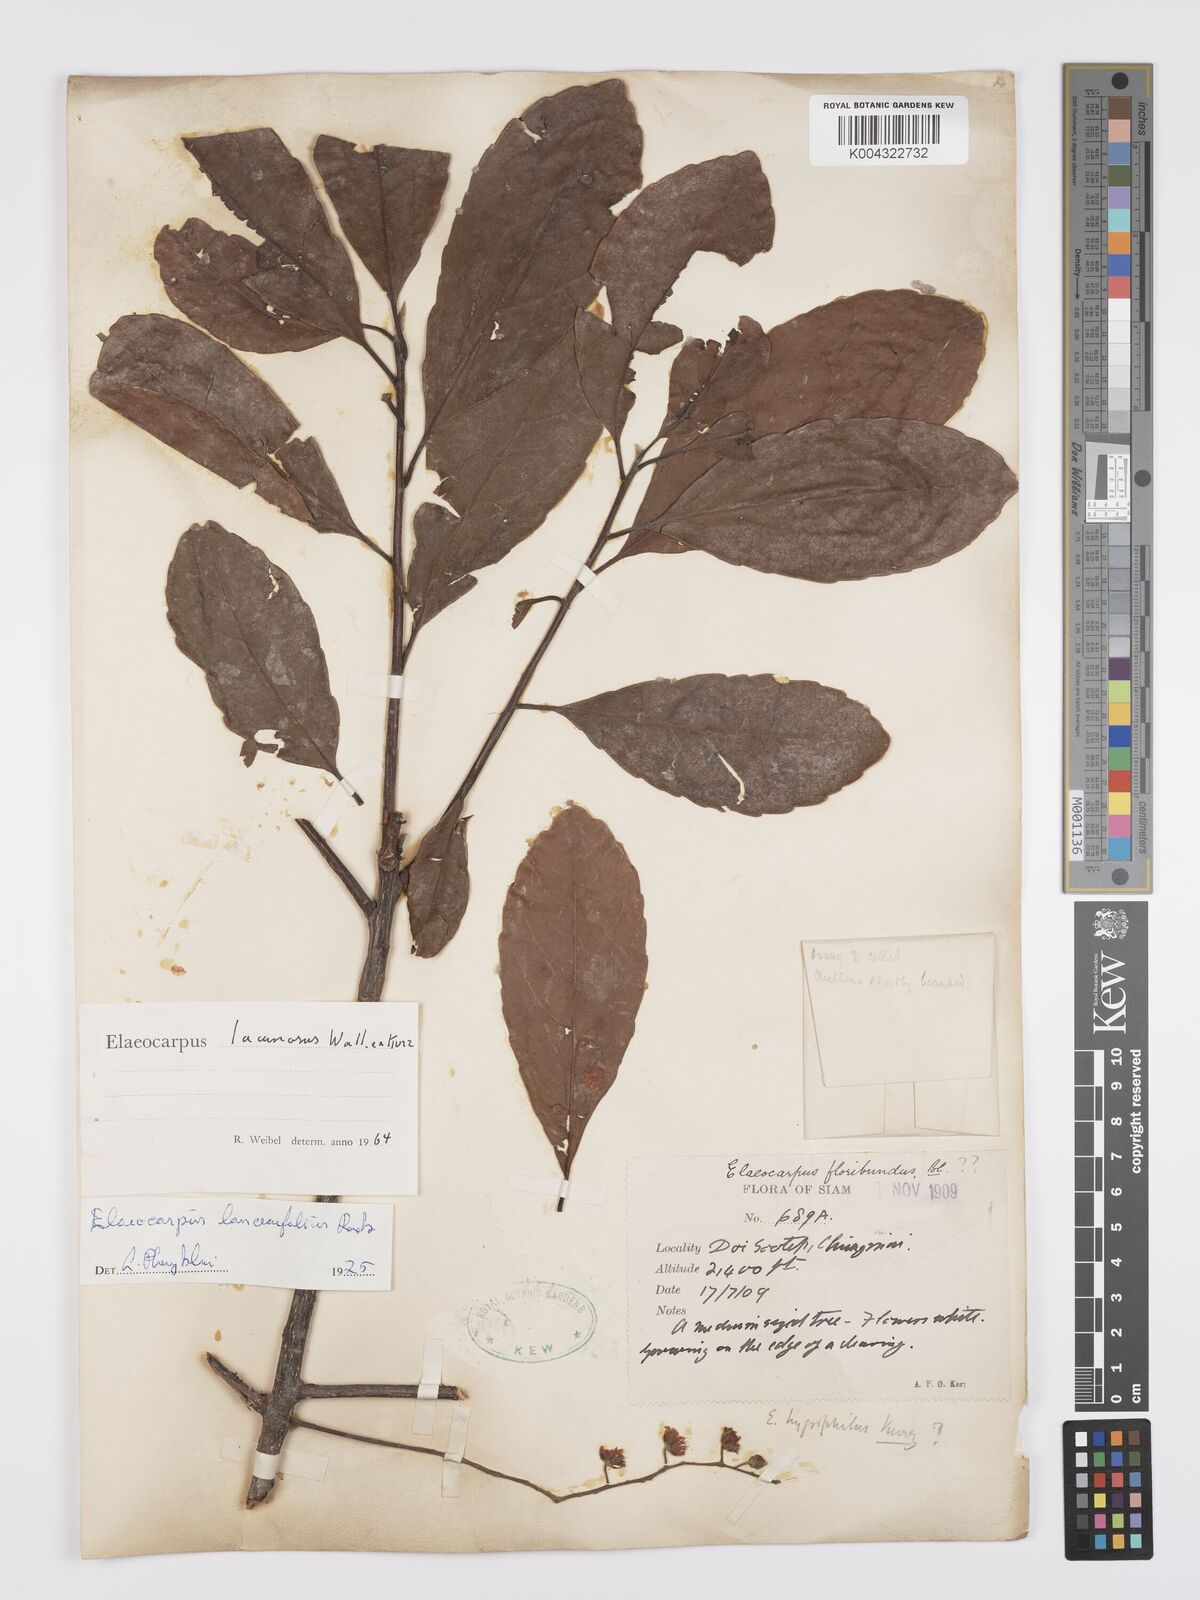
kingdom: Plantae
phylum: Tracheophyta
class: Magnoliopsida
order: Oxalidales
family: Elaeocarpaceae
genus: Elaeocarpus
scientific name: Elaeocarpus lanceifolius
